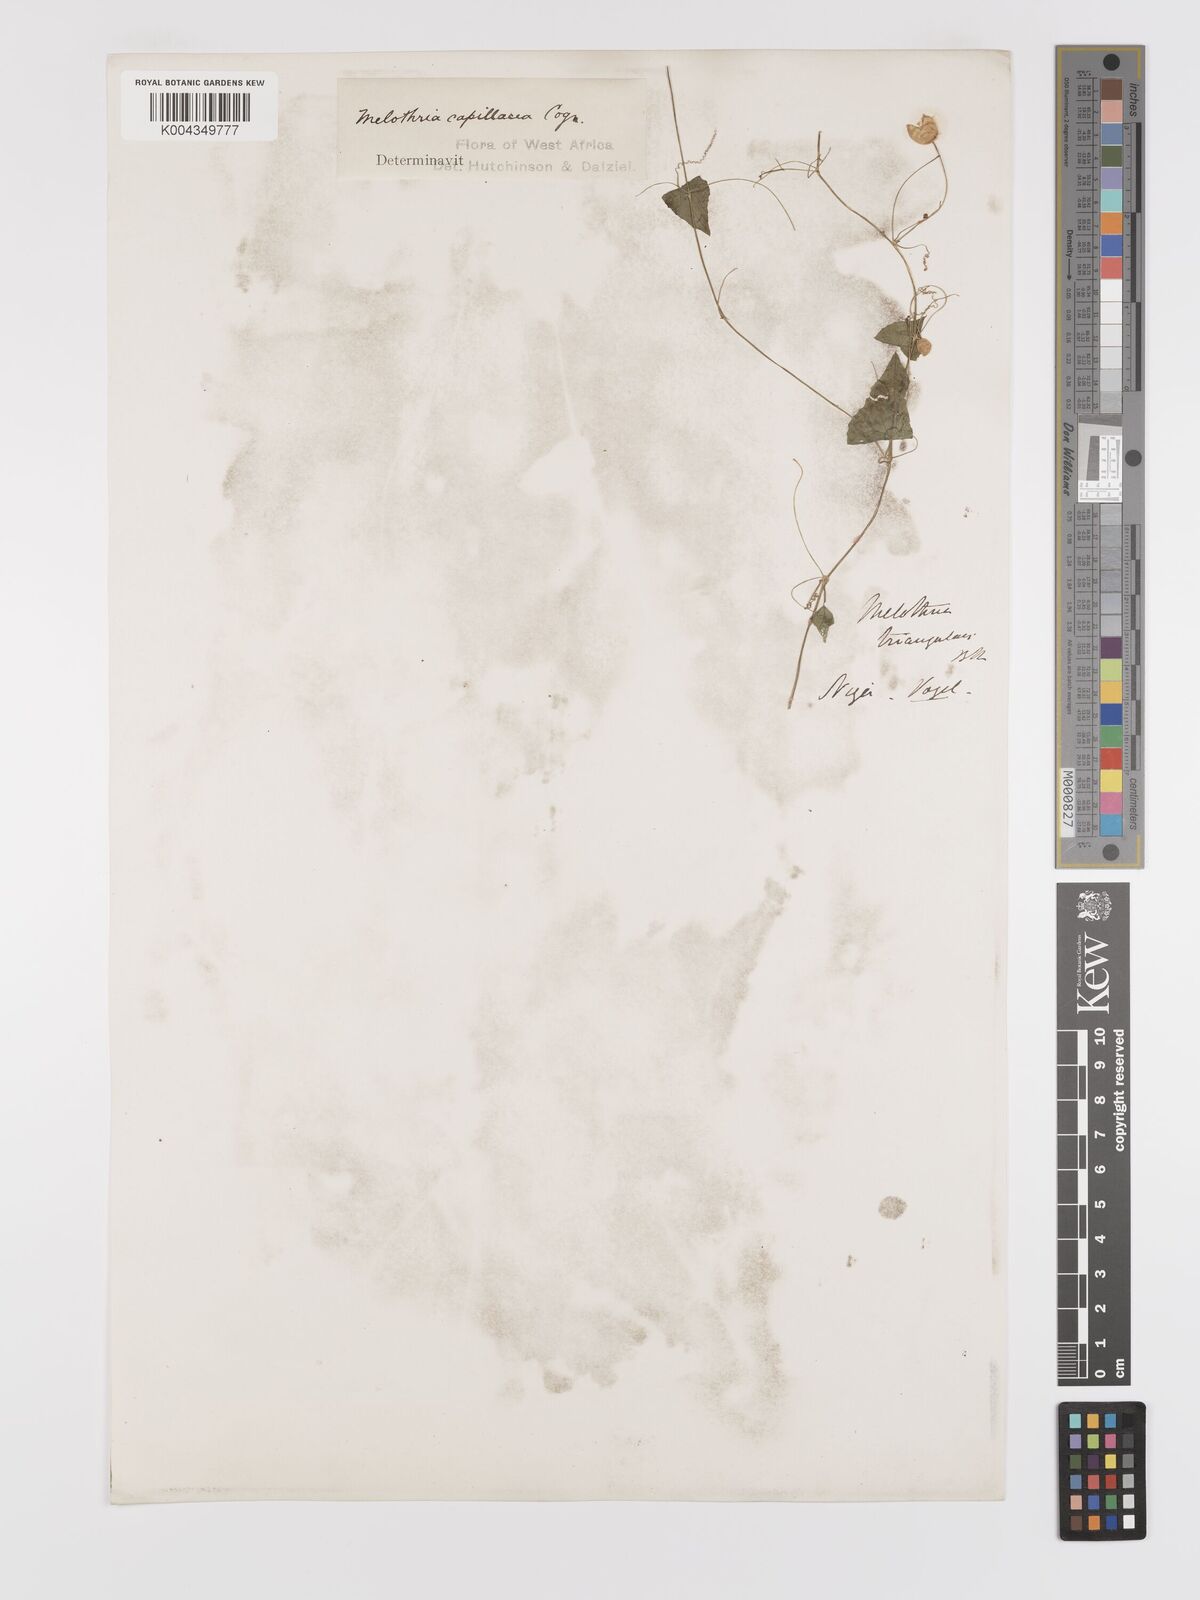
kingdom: Plantae
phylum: Tracheophyta
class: Magnoliopsida
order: Cucurbitales
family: Cucurbitaceae
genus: Zehneria
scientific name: Zehneria capillacea
